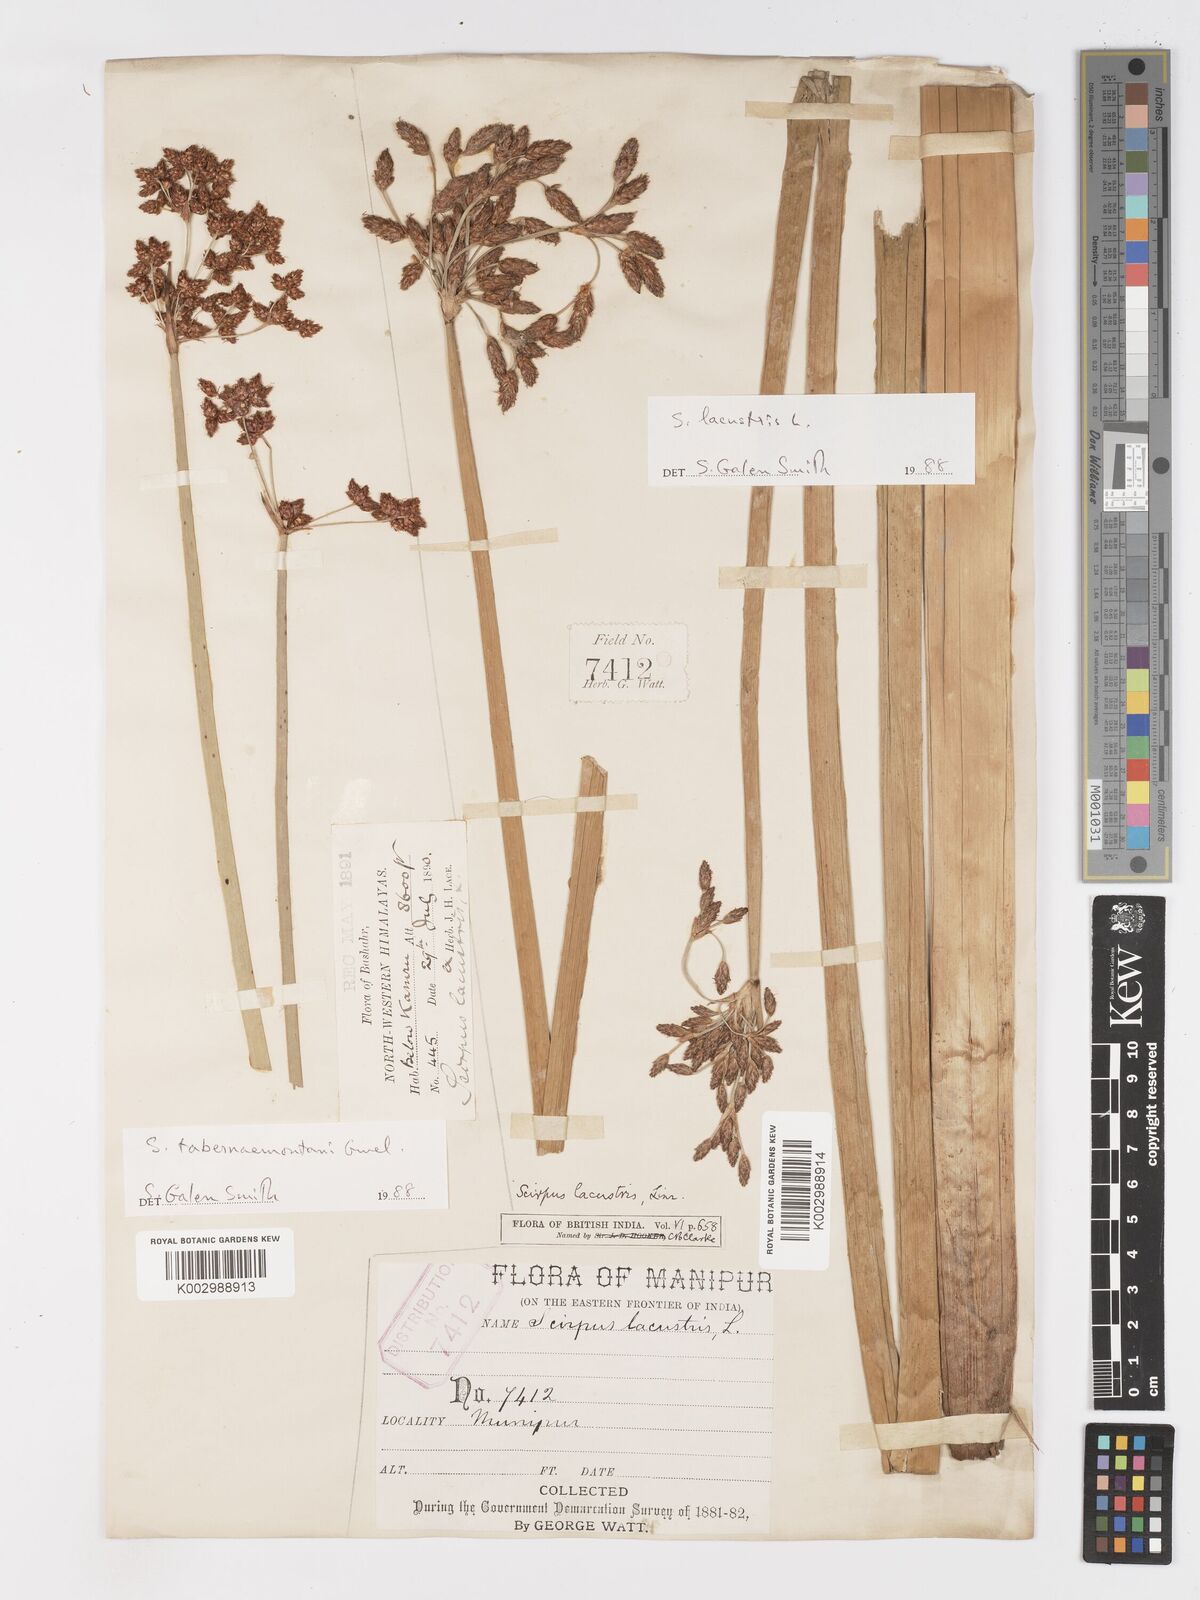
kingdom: Plantae
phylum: Tracheophyta
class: Liliopsida
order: Poales
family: Cyperaceae
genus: Schoenoplectus
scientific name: Schoenoplectus tabernaemontani
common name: Grey club-rush
